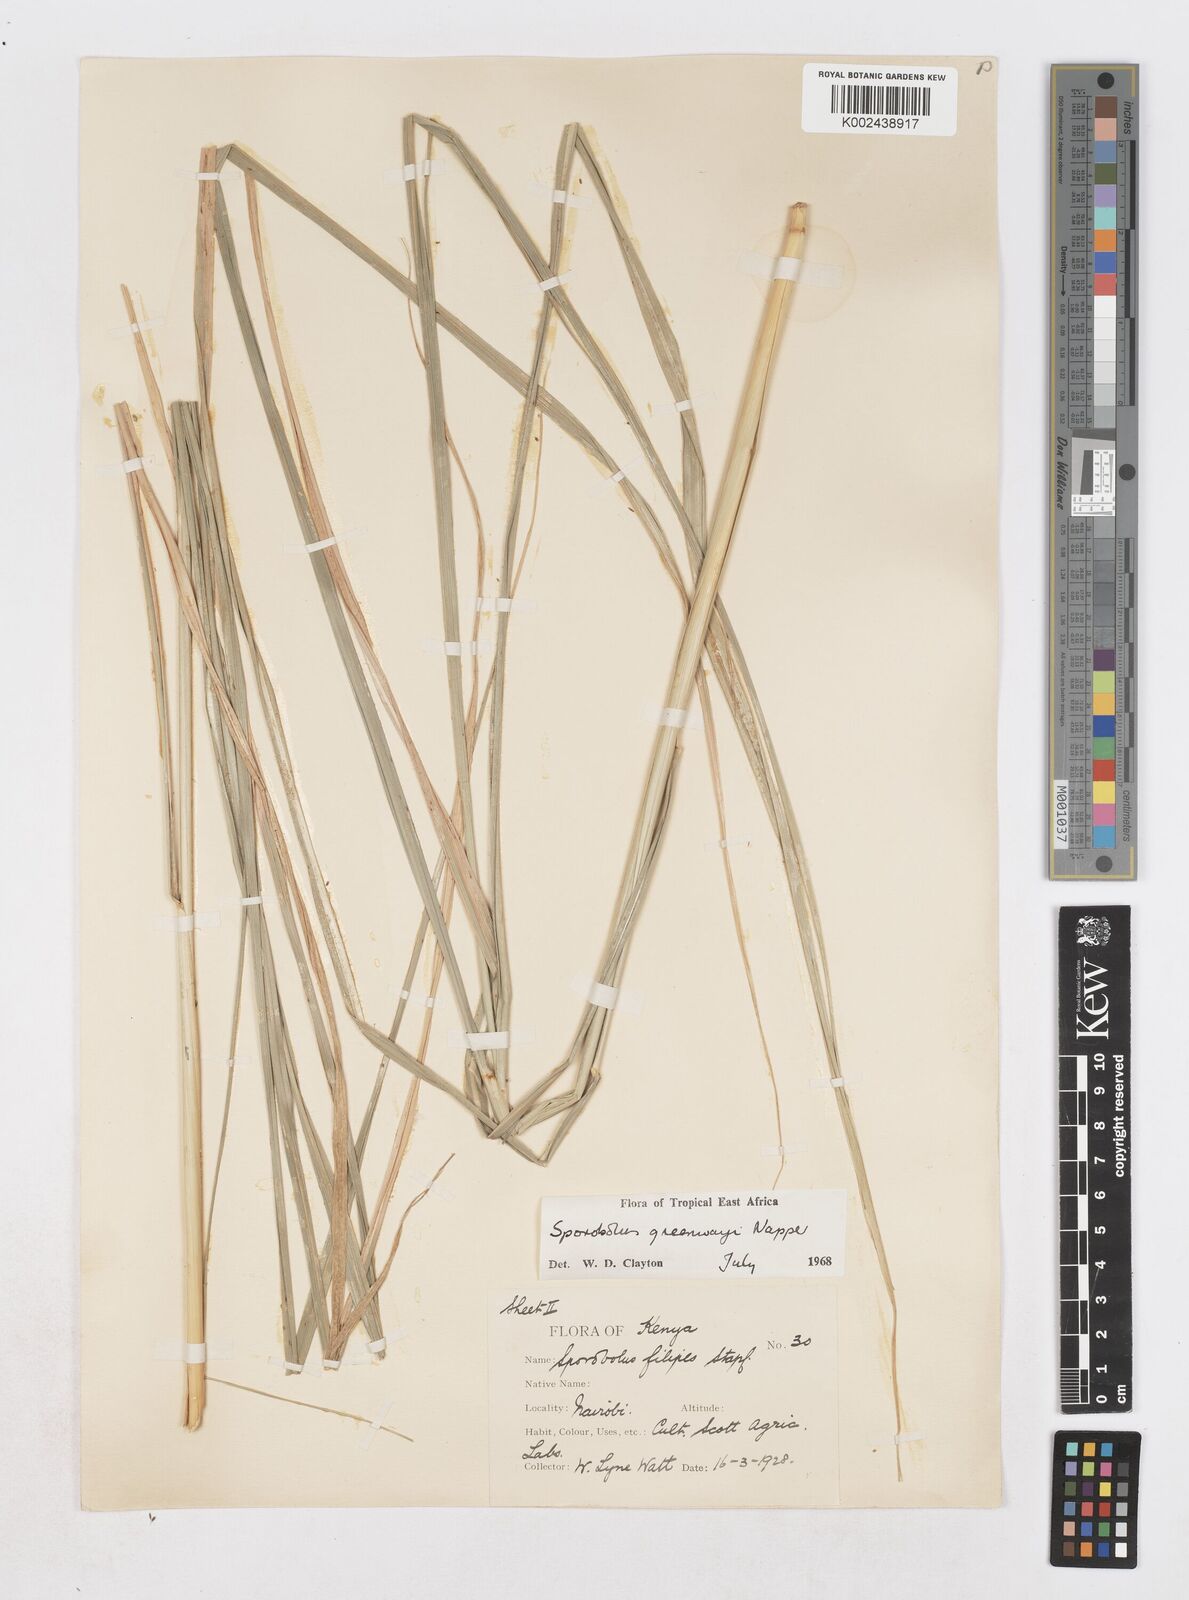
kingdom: Plantae
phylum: Tracheophyta
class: Liliopsida
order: Poales
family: Poaceae
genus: Sporobolus
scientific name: Sporobolus macranthelus
